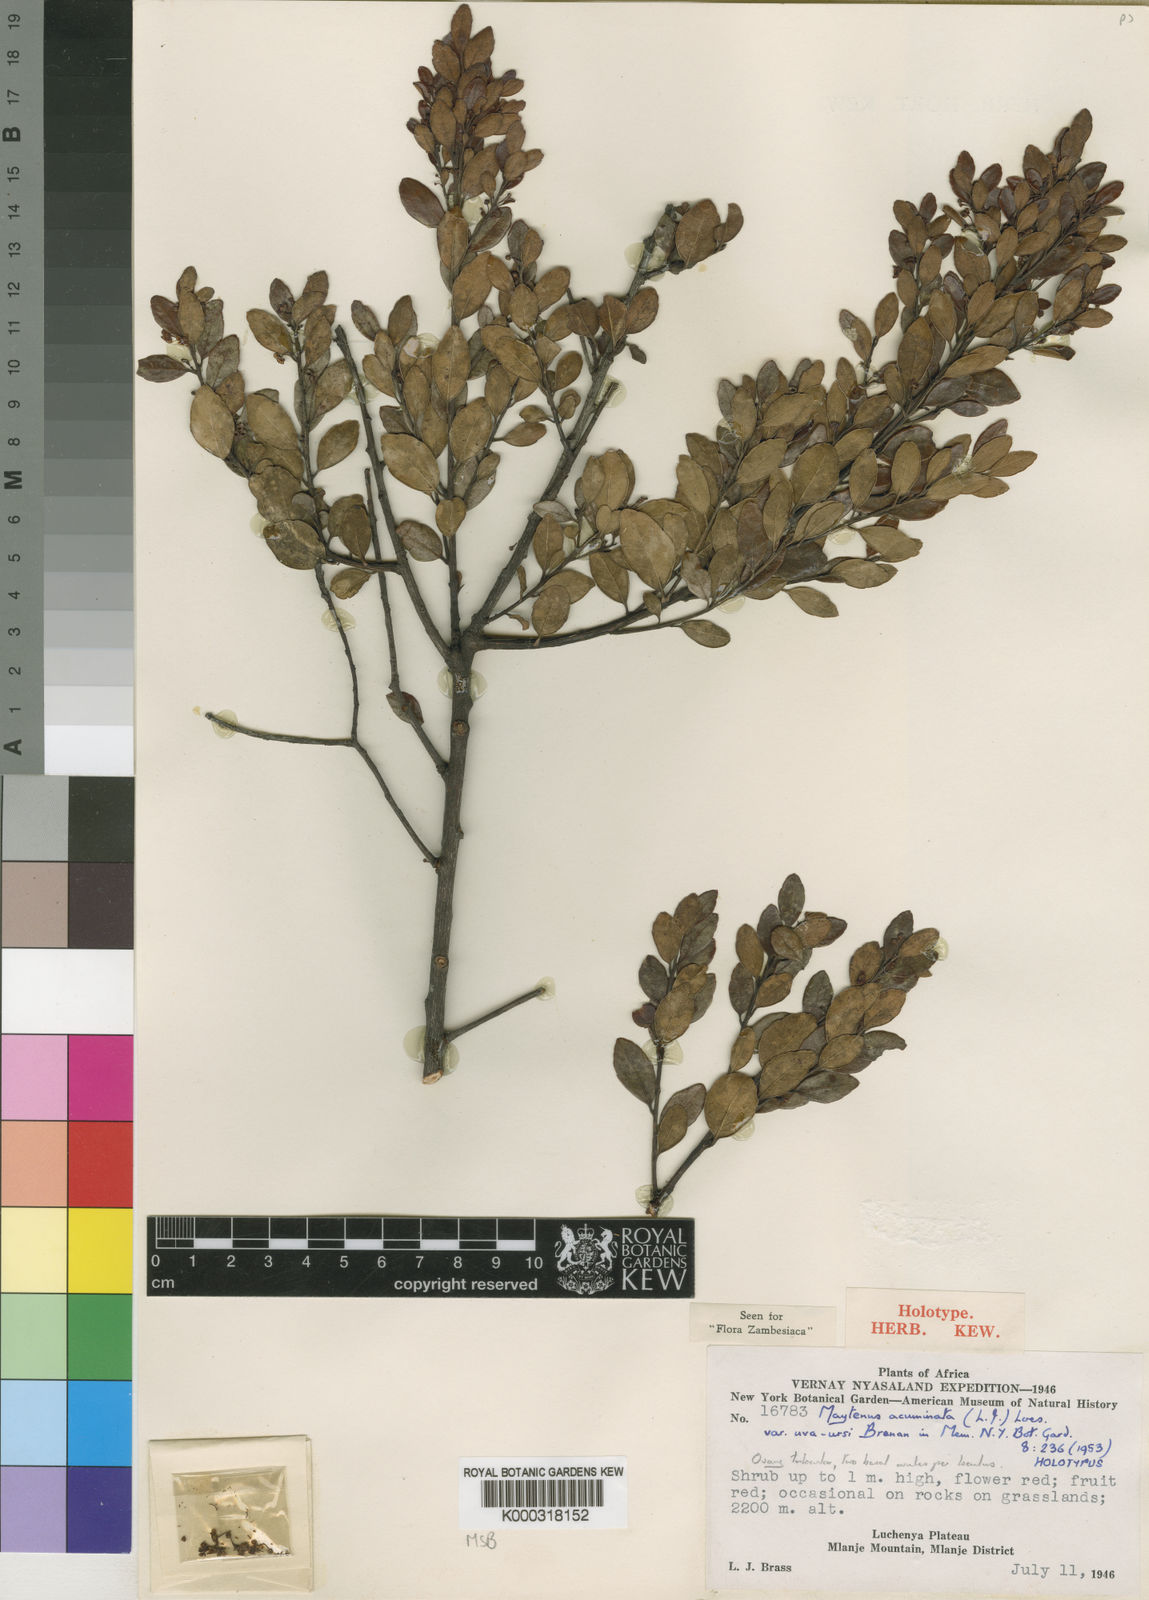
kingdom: Plantae
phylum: Tracheophyta
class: Magnoliopsida
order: Celastrales
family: Celastraceae
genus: Maytenus
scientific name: Maytenus
